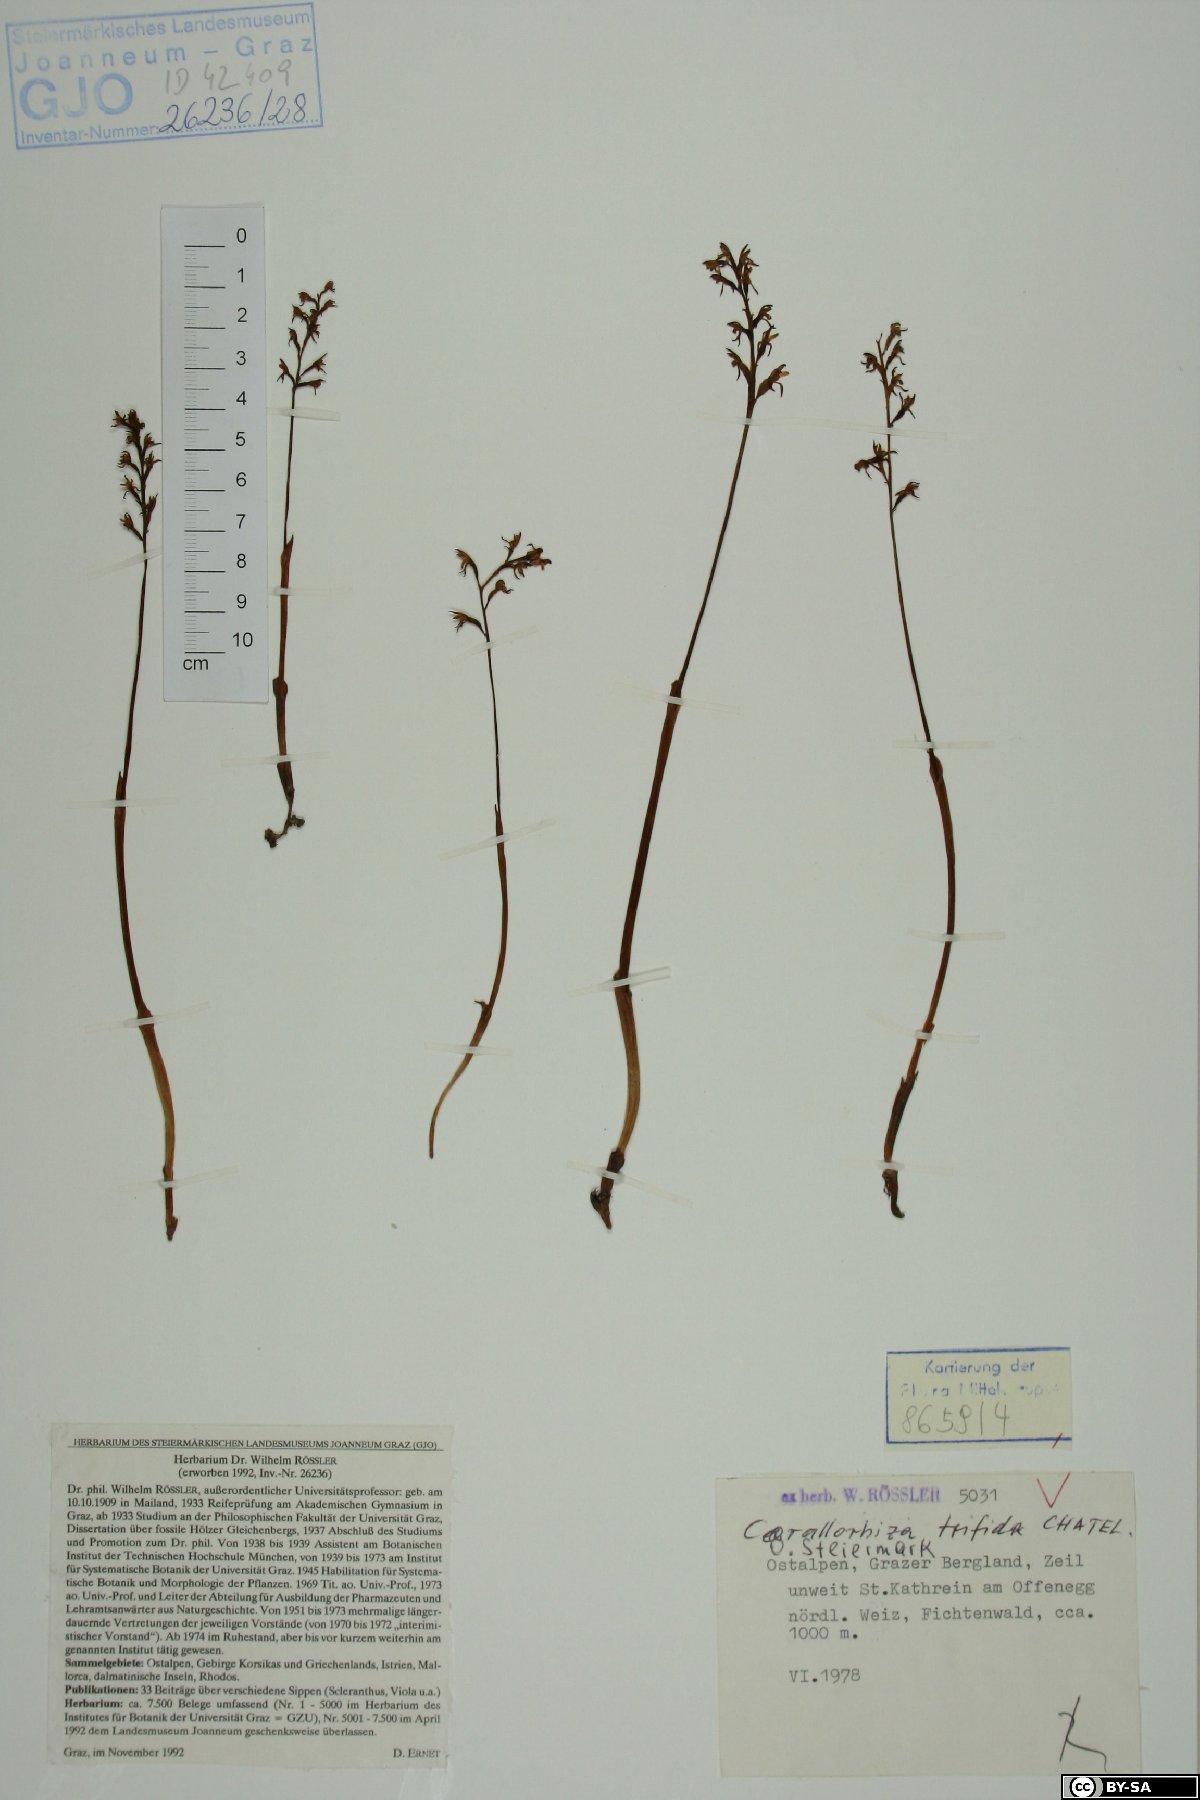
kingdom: Plantae
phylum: Tracheophyta
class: Liliopsida
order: Asparagales
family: Orchidaceae
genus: Corallorhiza
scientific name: Corallorhiza trifida
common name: Yellow coralroot
